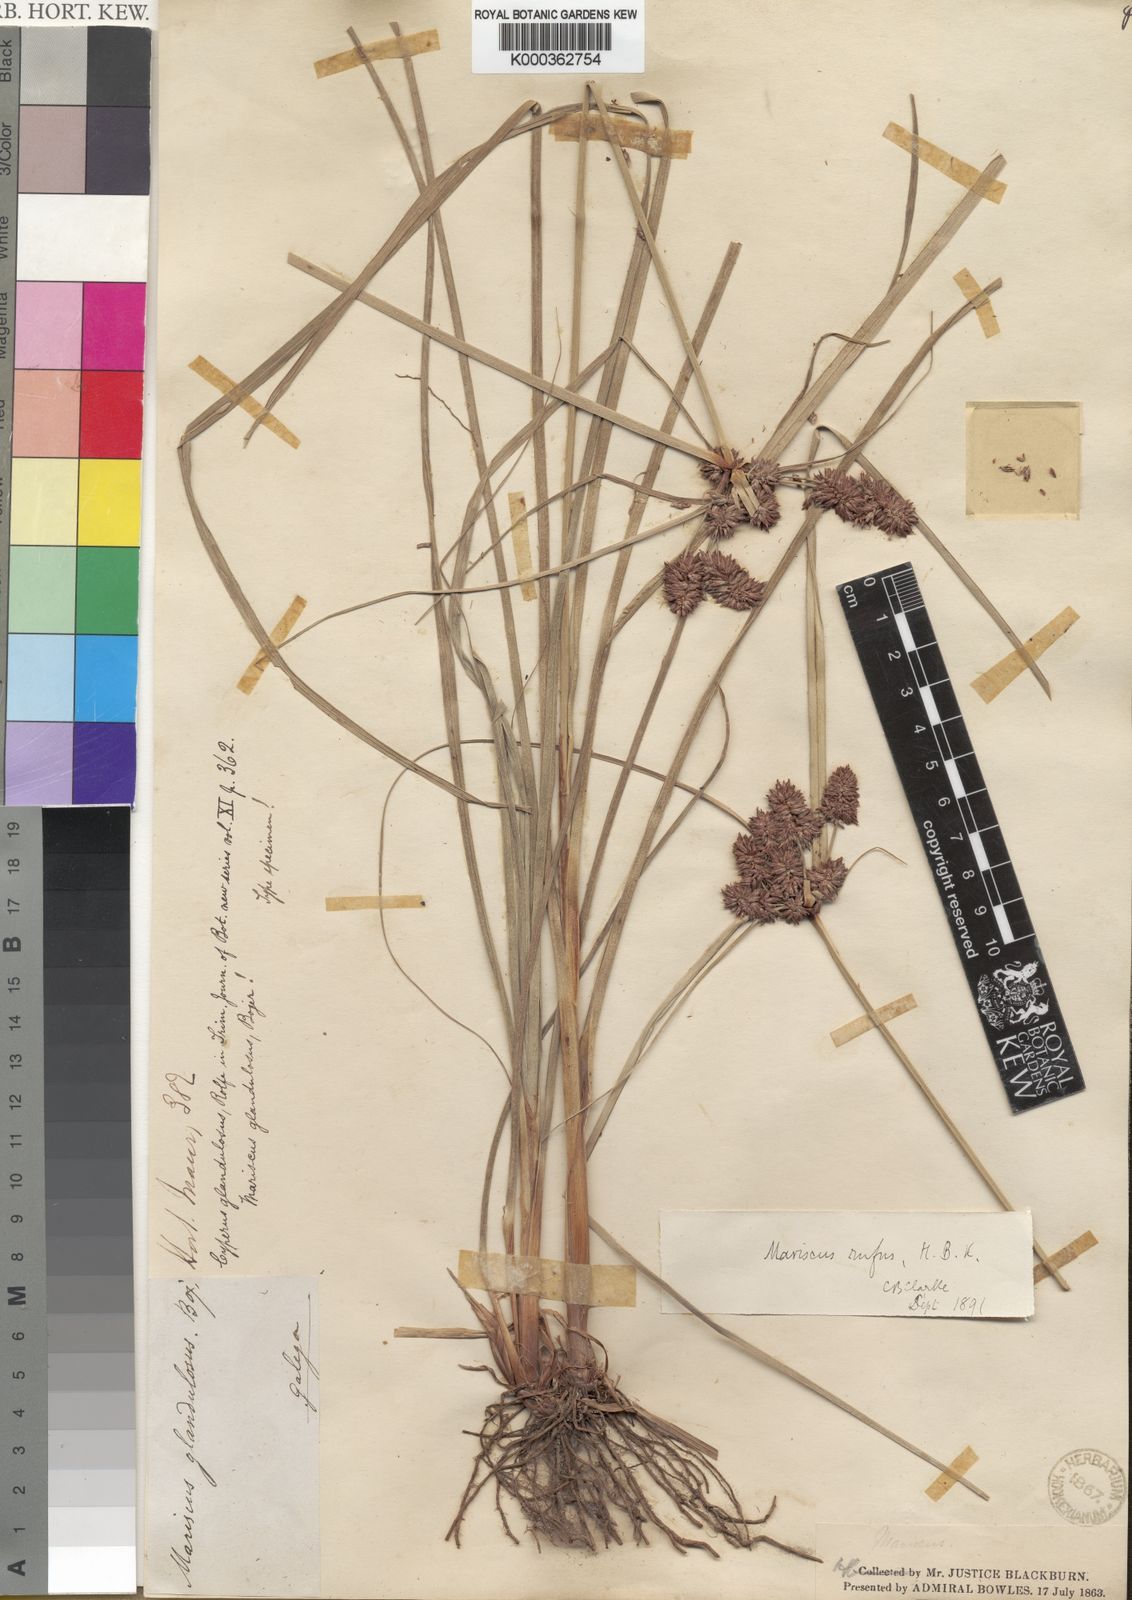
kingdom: Plantae
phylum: Tracheophyta
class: Liliopsida
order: Poales
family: Cyperaceae
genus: Cyperus
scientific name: Cyperus ligularis
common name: Swamp flat sedge
